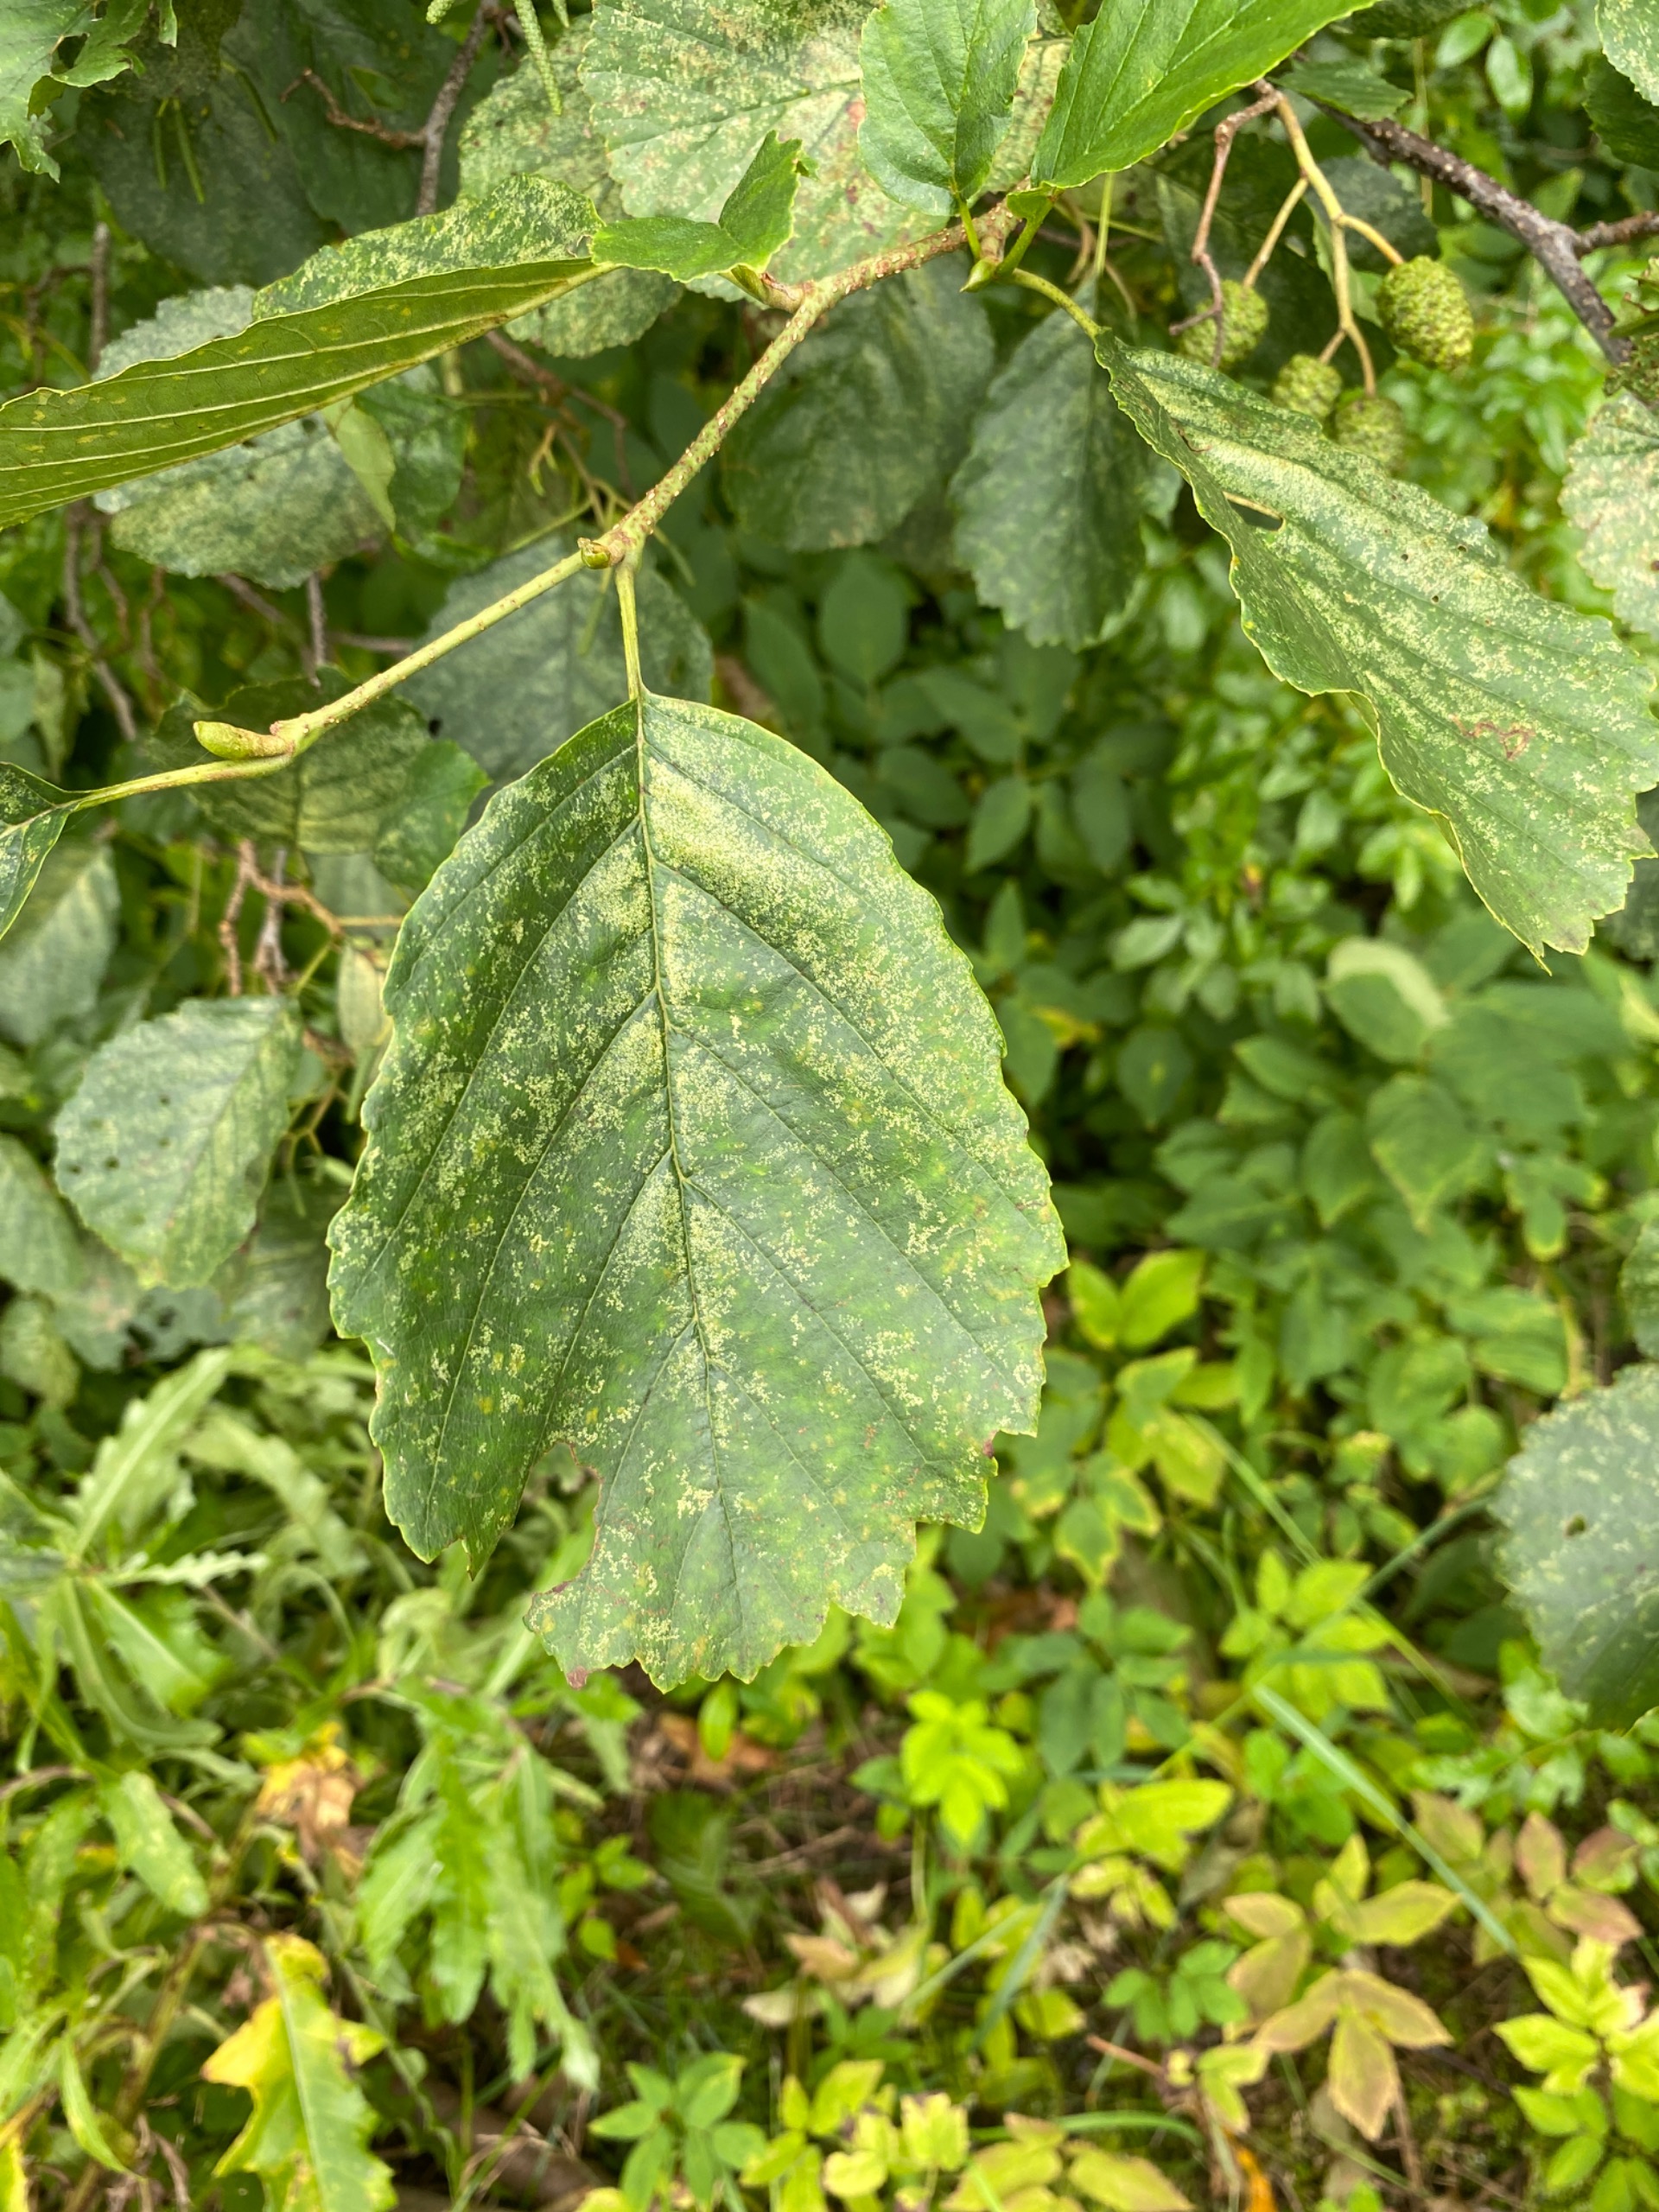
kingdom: Plantae
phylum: Tracheophyta
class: Magnoliopsida
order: Fagales
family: Betulaceae
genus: Alnus
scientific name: Alnus glutinosa
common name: Rød-el
